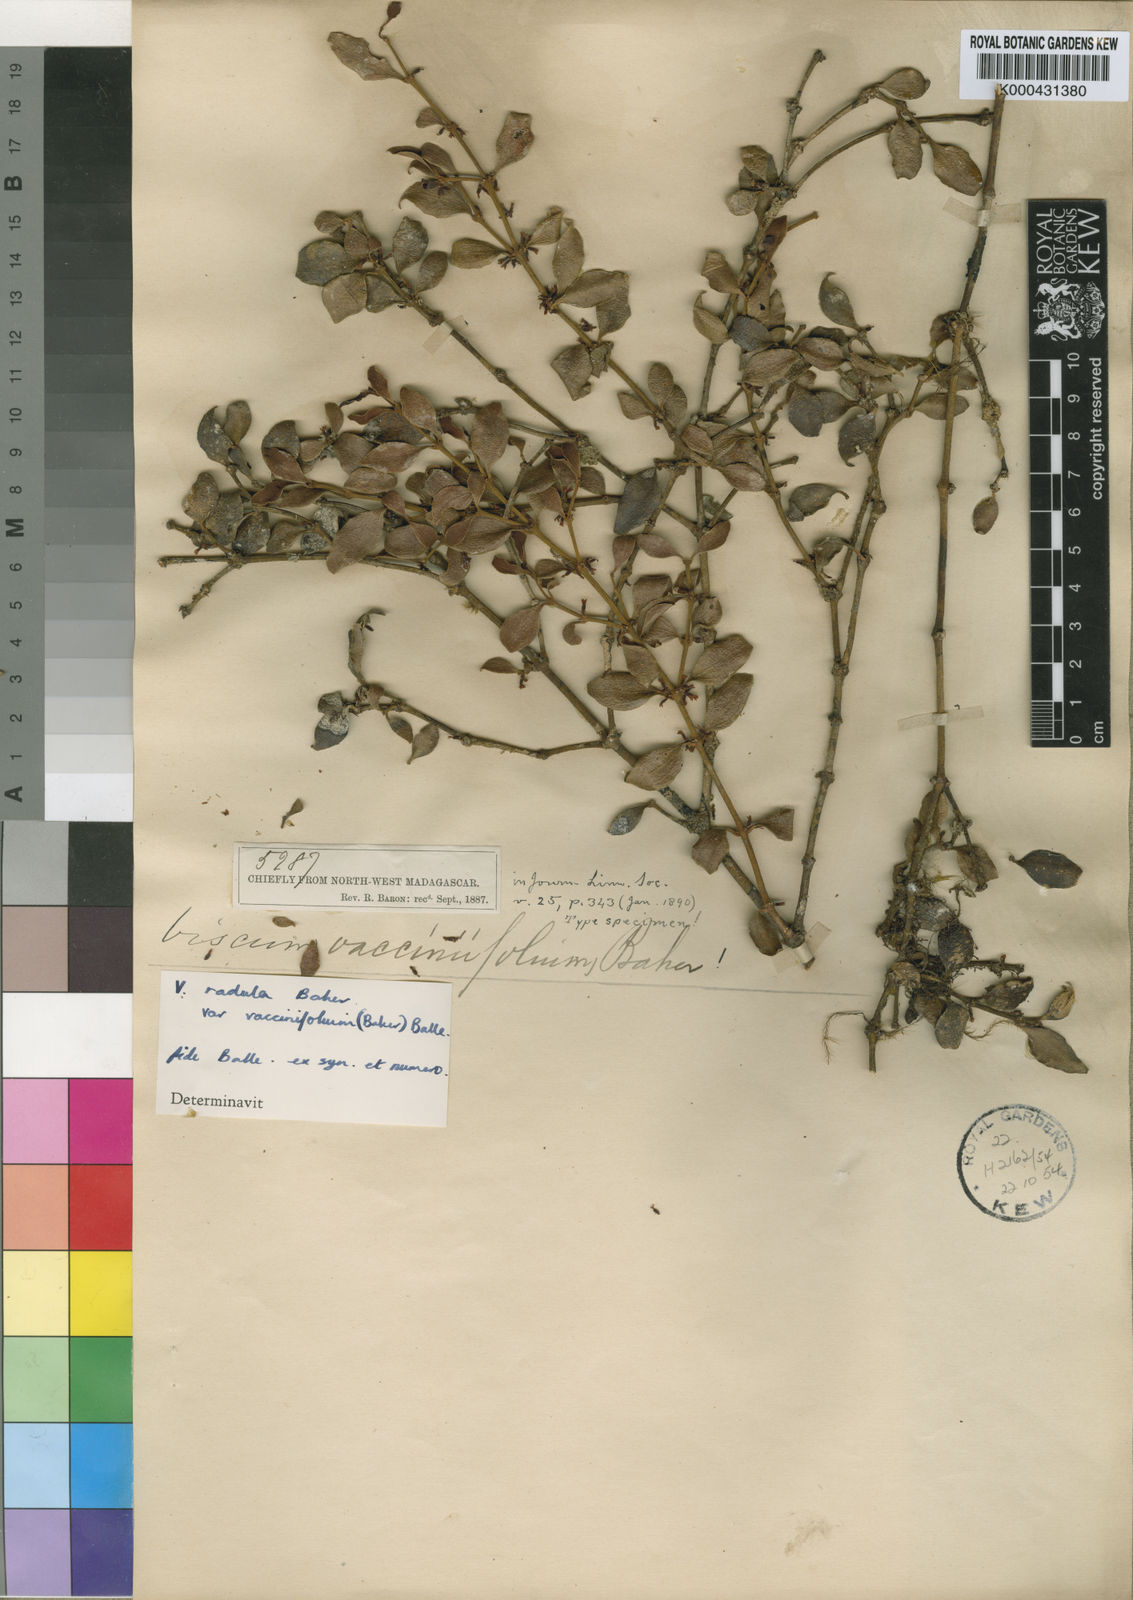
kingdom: Plantae
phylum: Tracheophyta
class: Magnoliopsida
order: Santalales
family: Viscaceae
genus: Viscum
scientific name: Viscum radula
